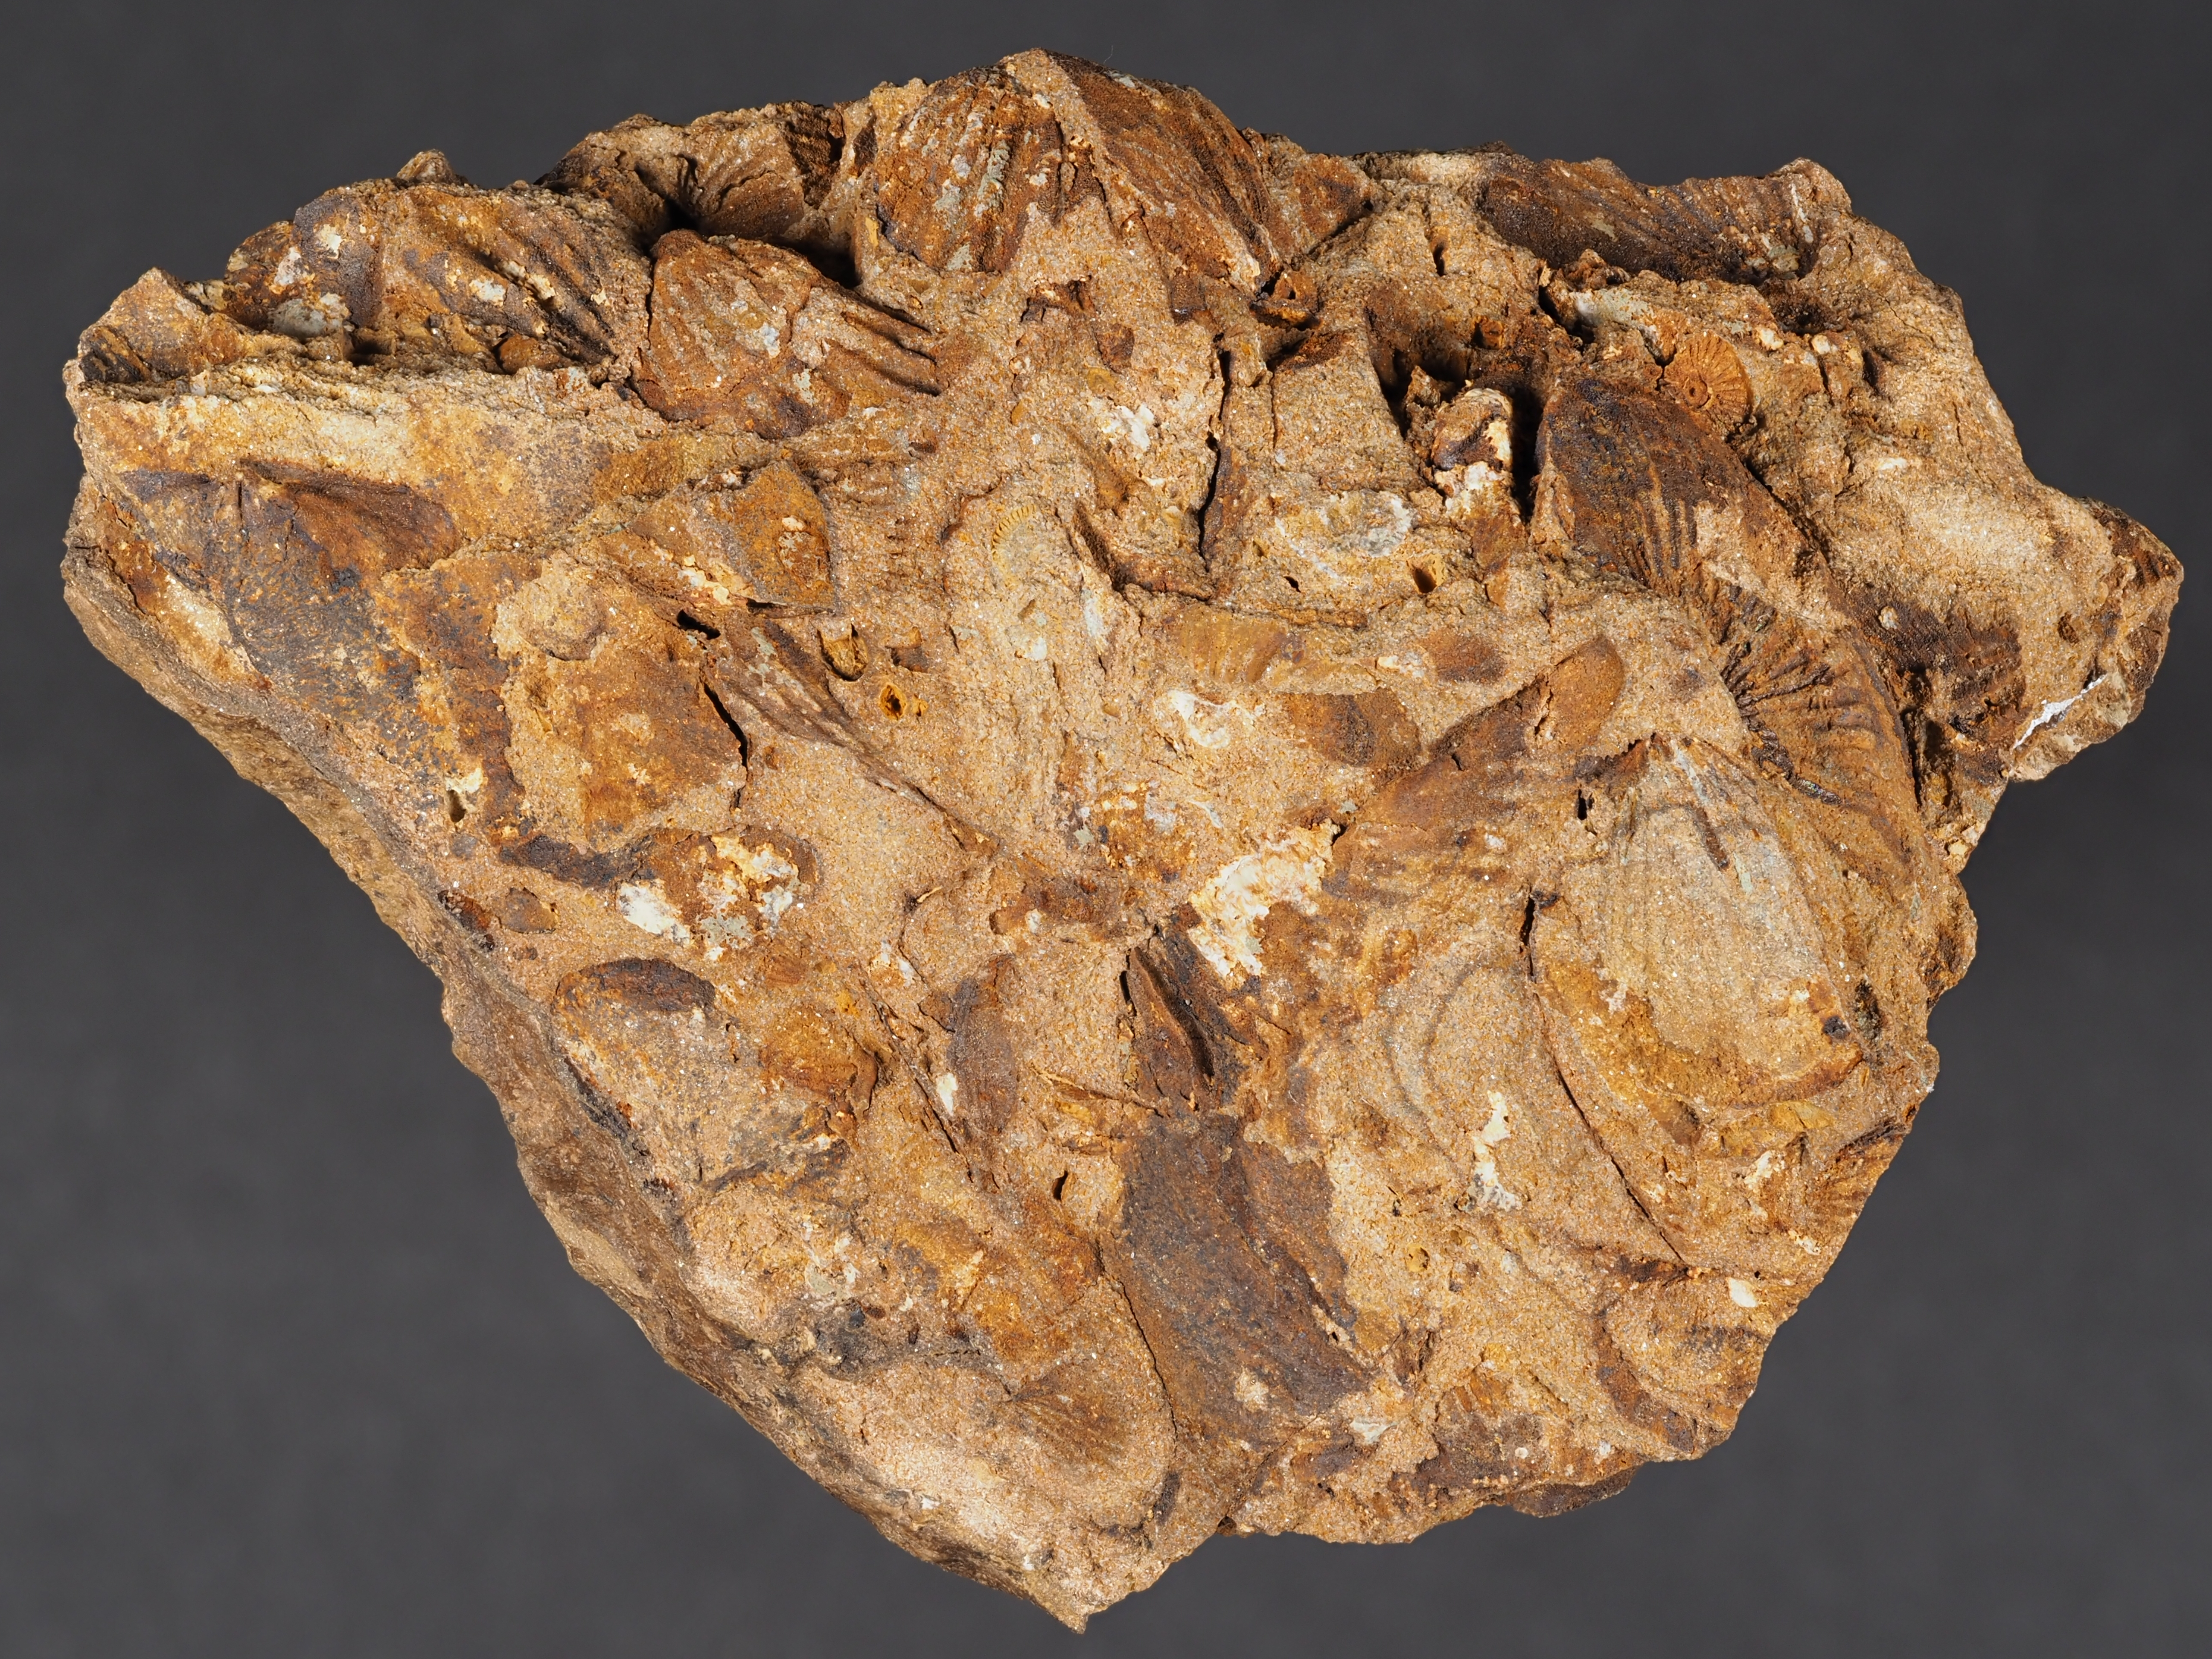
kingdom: Animalia
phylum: Brachiopoda
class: Rhynchonellata
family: Delthyrididae
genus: Euryspirifer
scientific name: Euryspirifer
